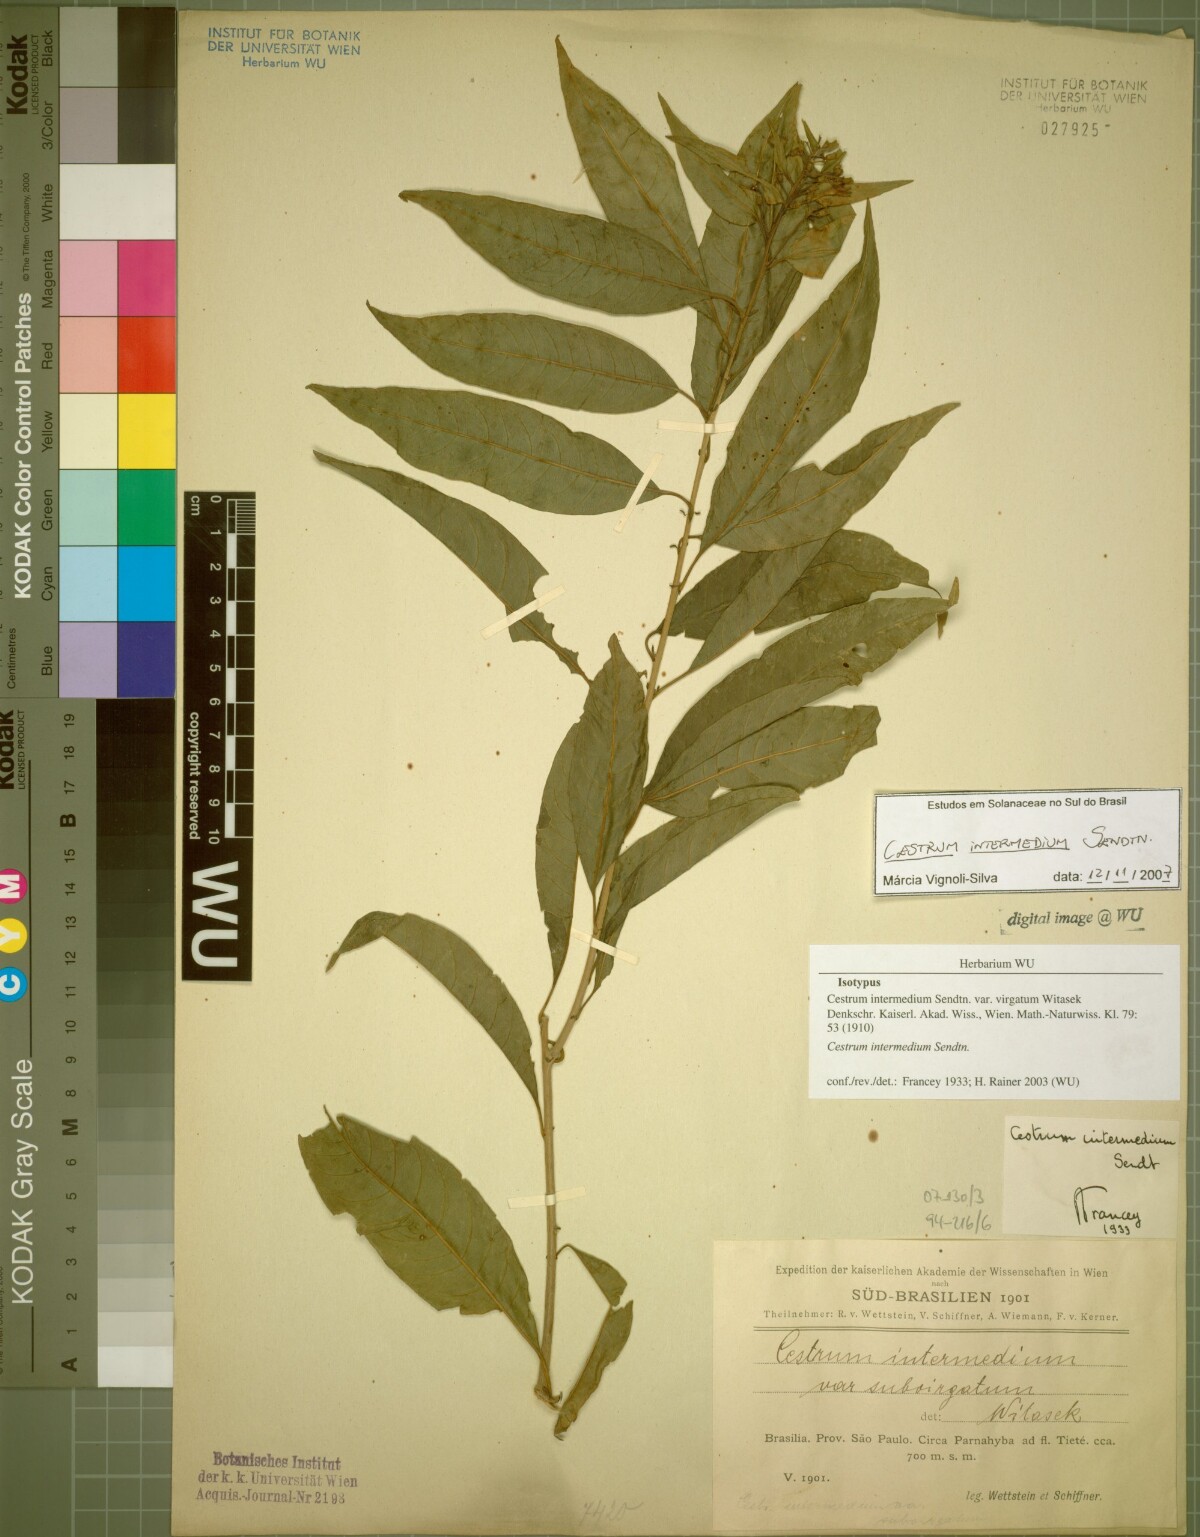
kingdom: Plantae
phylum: Tracheophyta
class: Magnoliopsida
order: Solanales
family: Solanaceae
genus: Cestrum
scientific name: Cestrum intermedium
